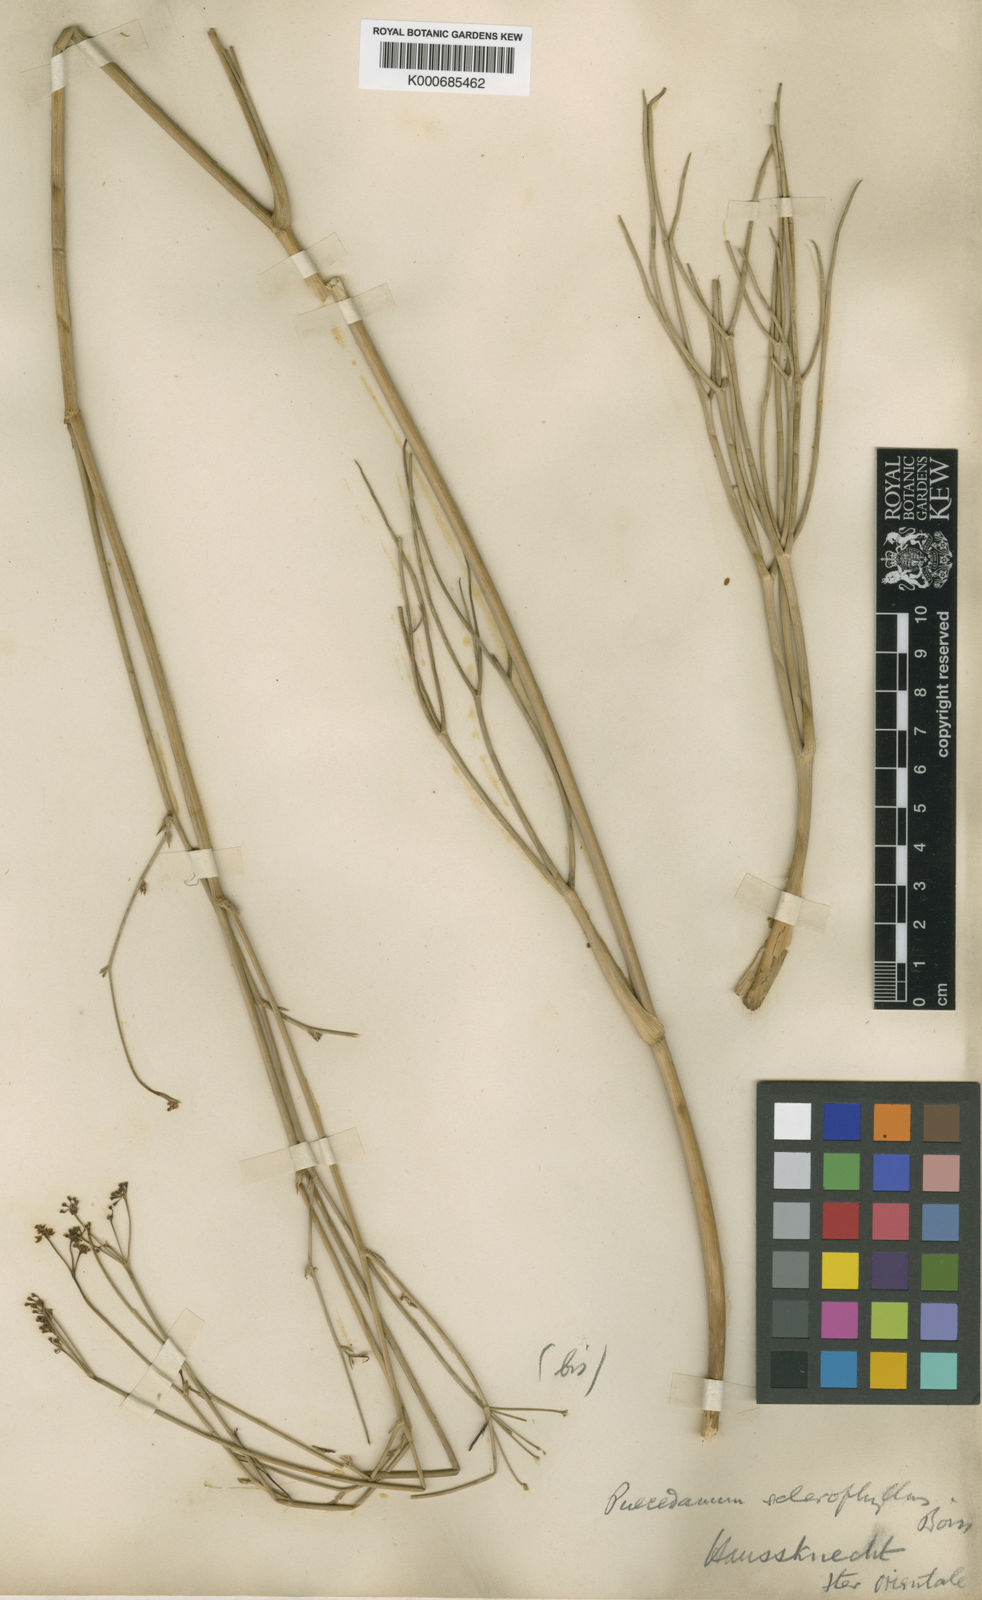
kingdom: Plantae
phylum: Tracheophyta
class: Magnoliopsida
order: Apiales
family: Apiaceae
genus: Leutea
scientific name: Leutea sclerophylla
